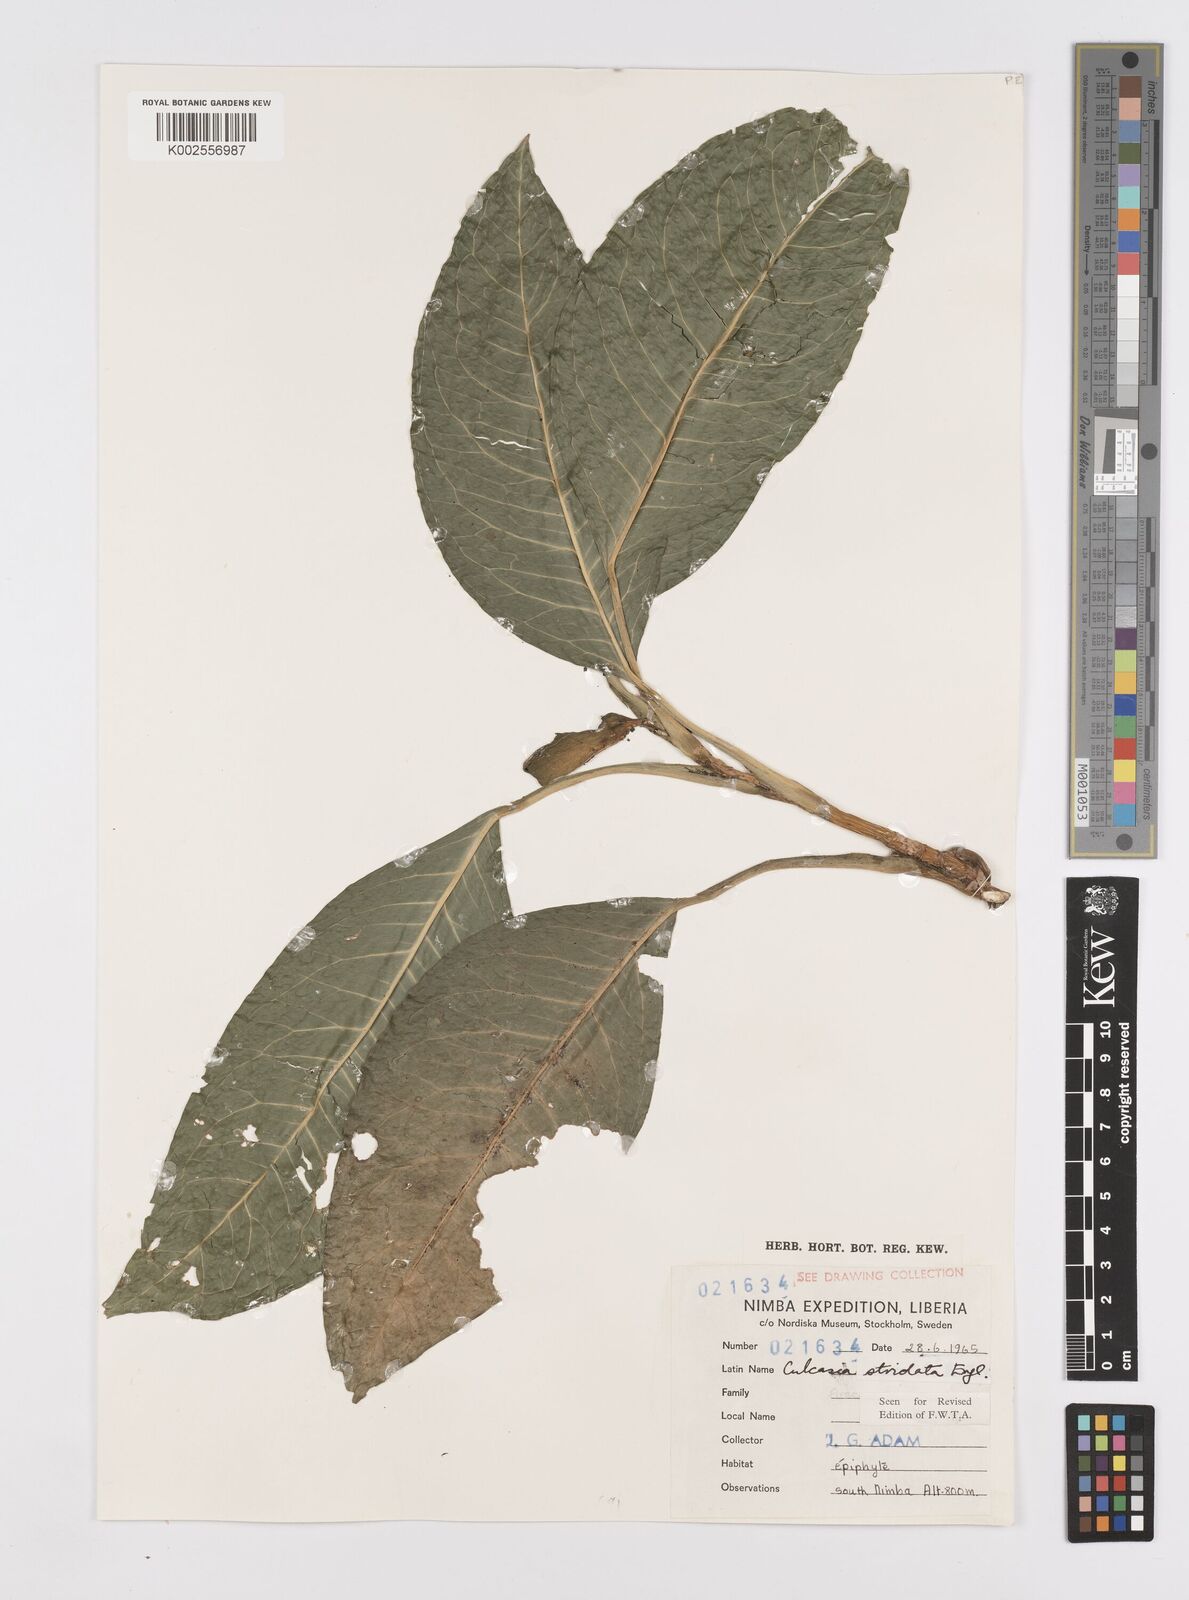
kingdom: Plantae
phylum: Tracheophyta
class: Liliopsida
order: Alismatales
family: Araceae
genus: Culcasia
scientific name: Culcasia striolata
